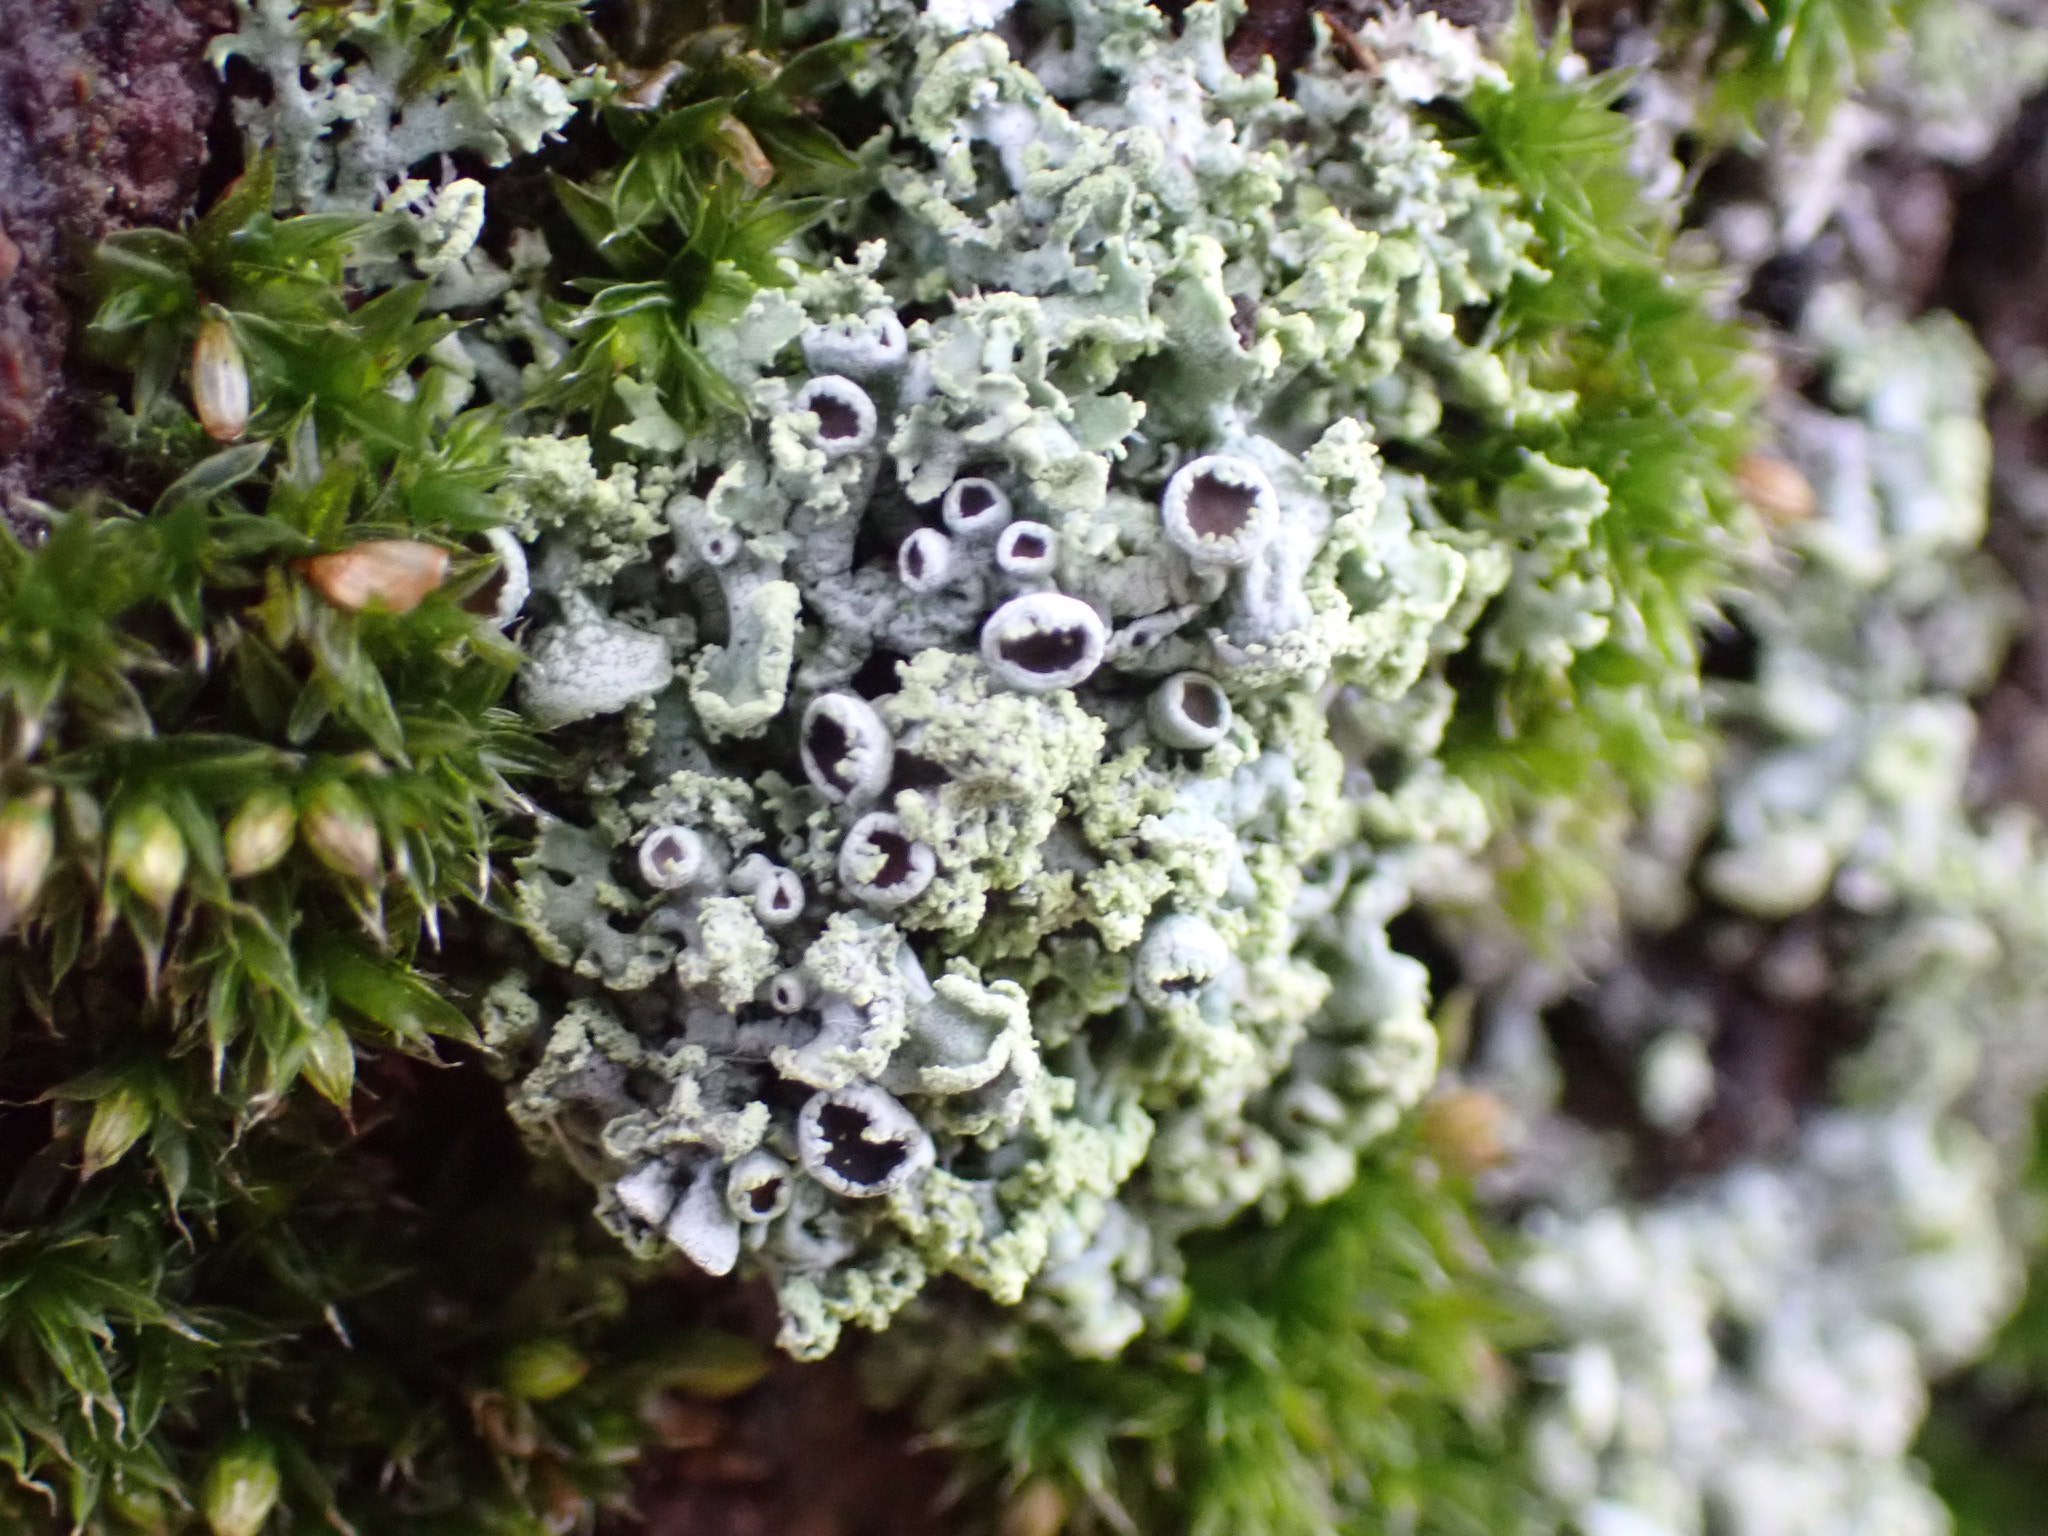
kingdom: Fungi
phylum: Ascomycota
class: Lecanoromycetes
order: Caliciales
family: Physciaceae
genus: Physcia
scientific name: Physcia tenella
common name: spæd rosetlav
